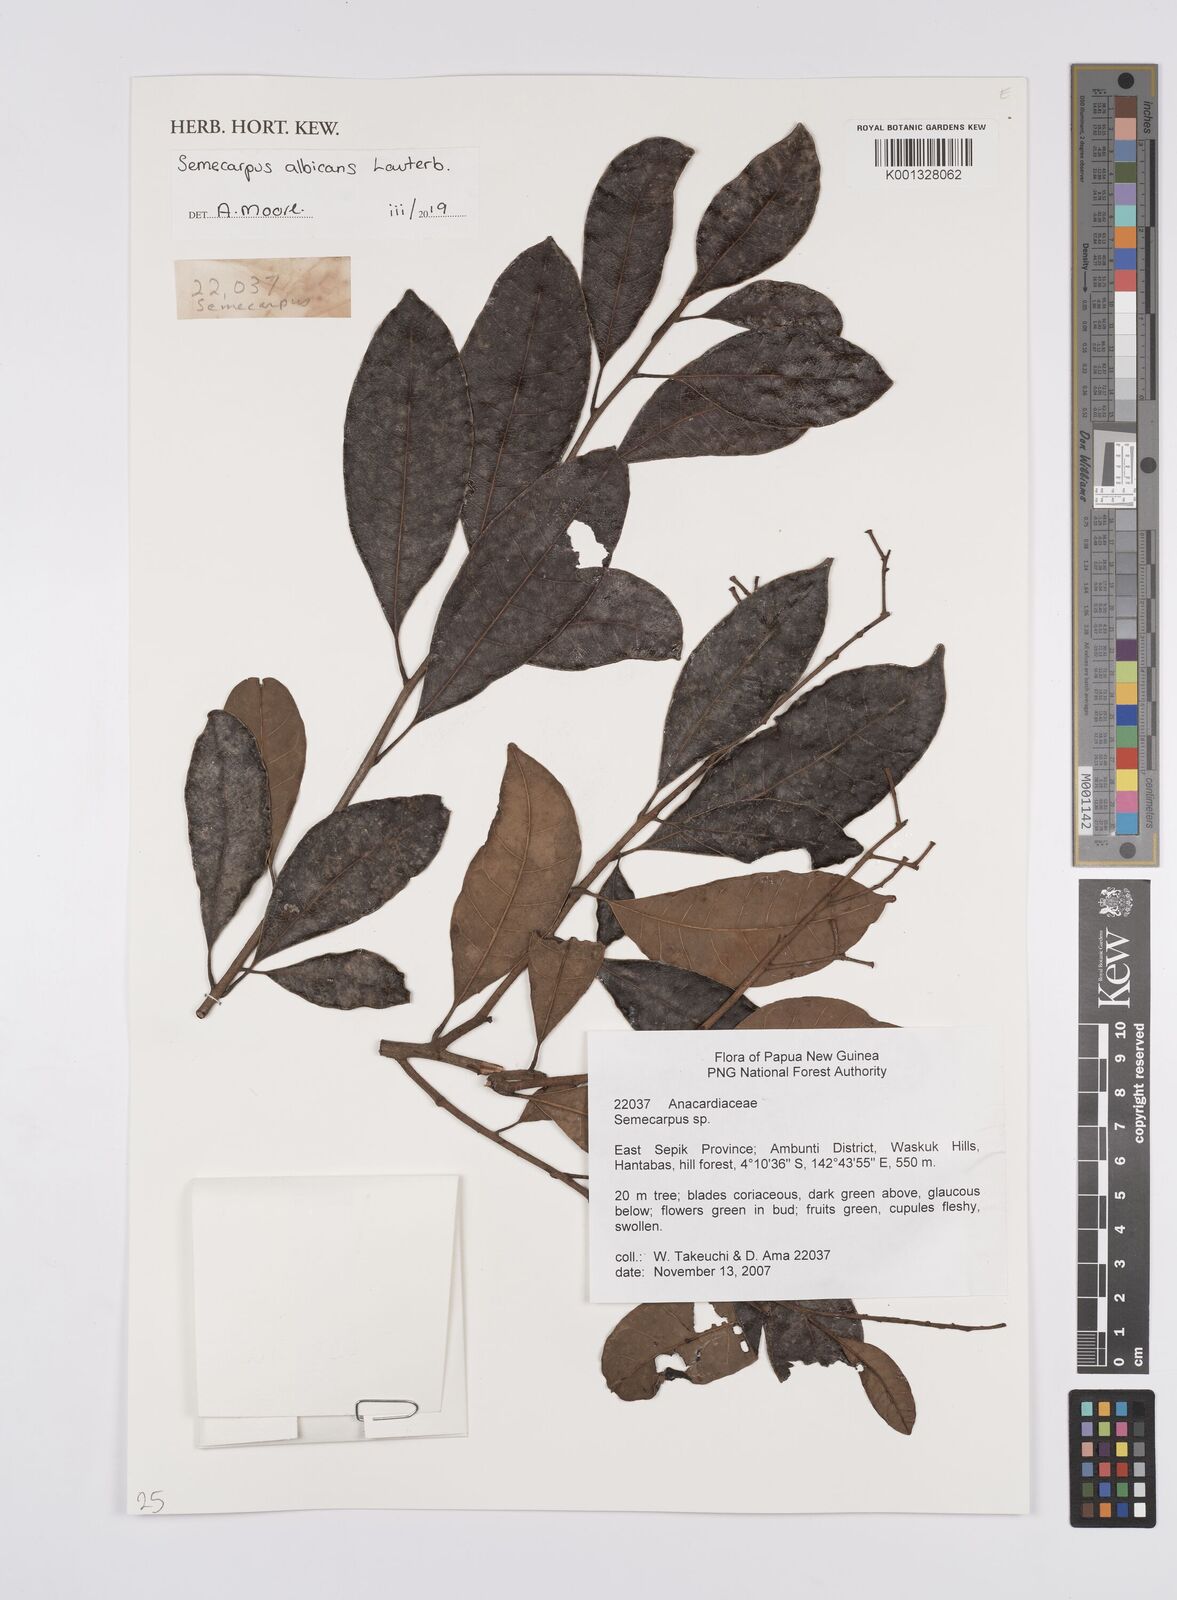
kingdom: Plantae
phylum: Tracheophyta
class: Magnoliopsida
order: Sapindales
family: Anacardiaceae
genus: Semecarpus
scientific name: Semecarpus albicans
